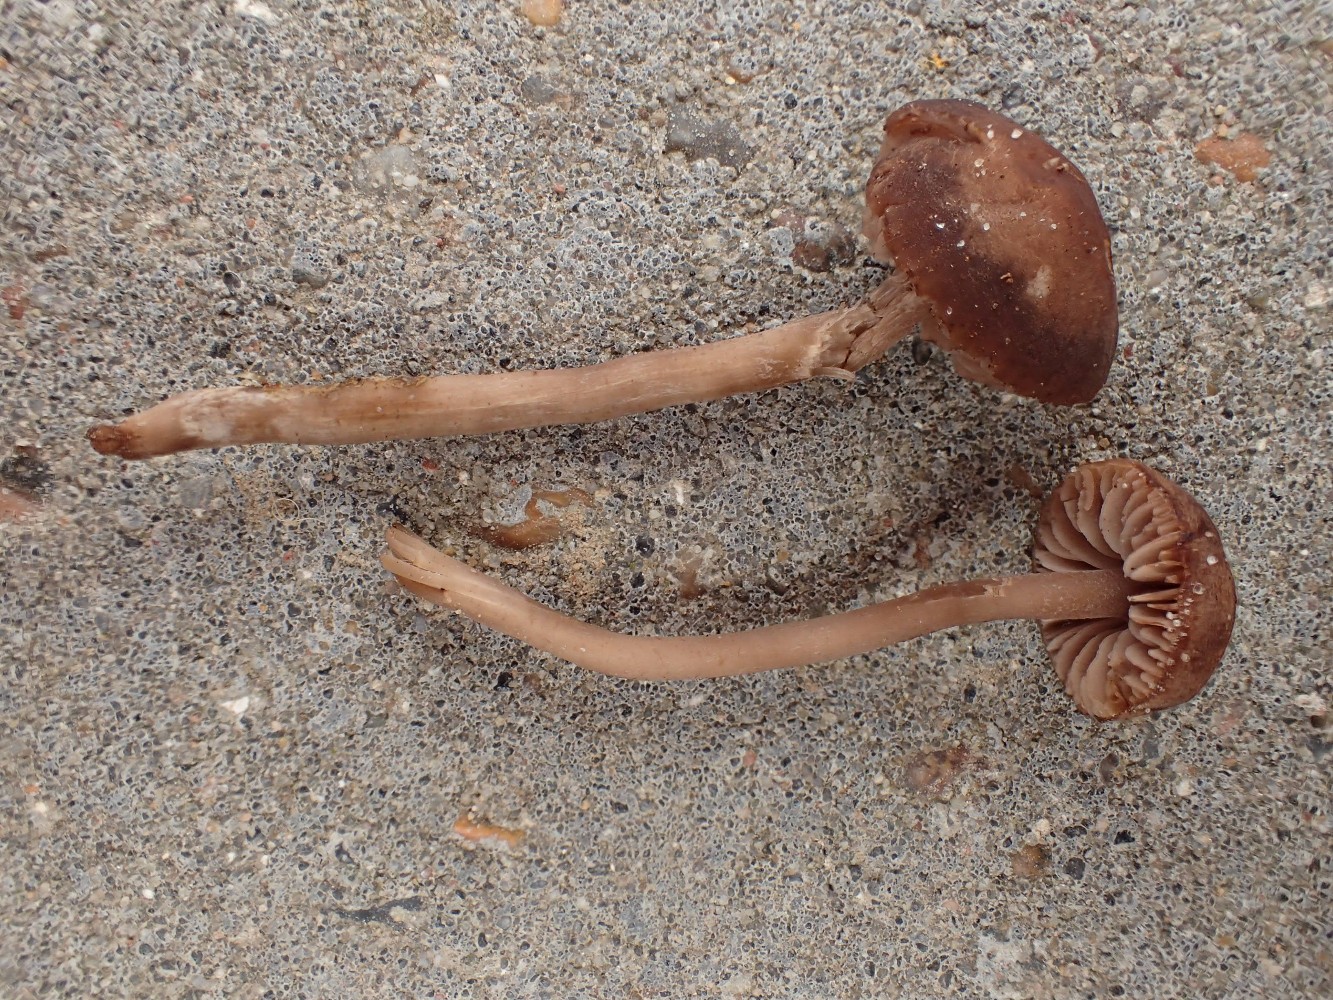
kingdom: Fungi
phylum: Basidiomycota
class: Agaricomycetes
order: Agaricales
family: Tricholomataceae
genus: Dermoloma
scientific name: Dermoloma pseudocuneifolium
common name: mark-nonnehat
